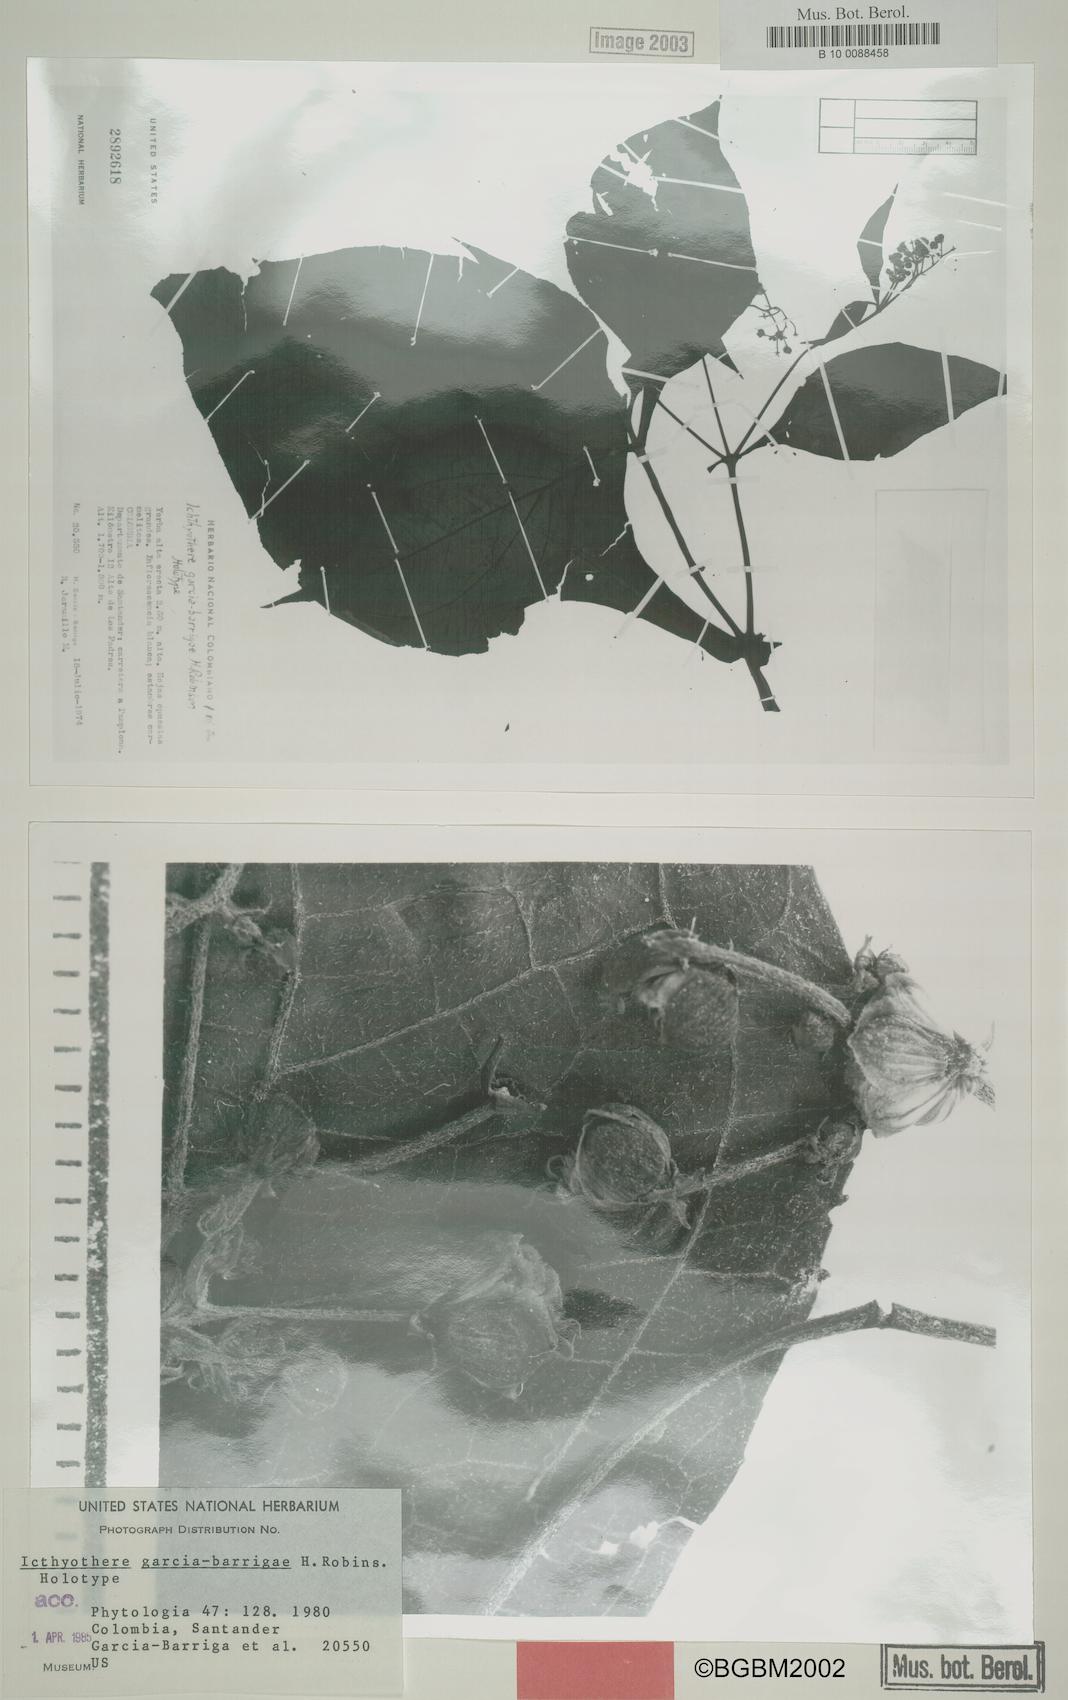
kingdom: Plantae
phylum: Tracheophyta
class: Magnoliopsida
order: Asterales
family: Asteraceae
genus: Icthyothere
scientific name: Icthyothere
